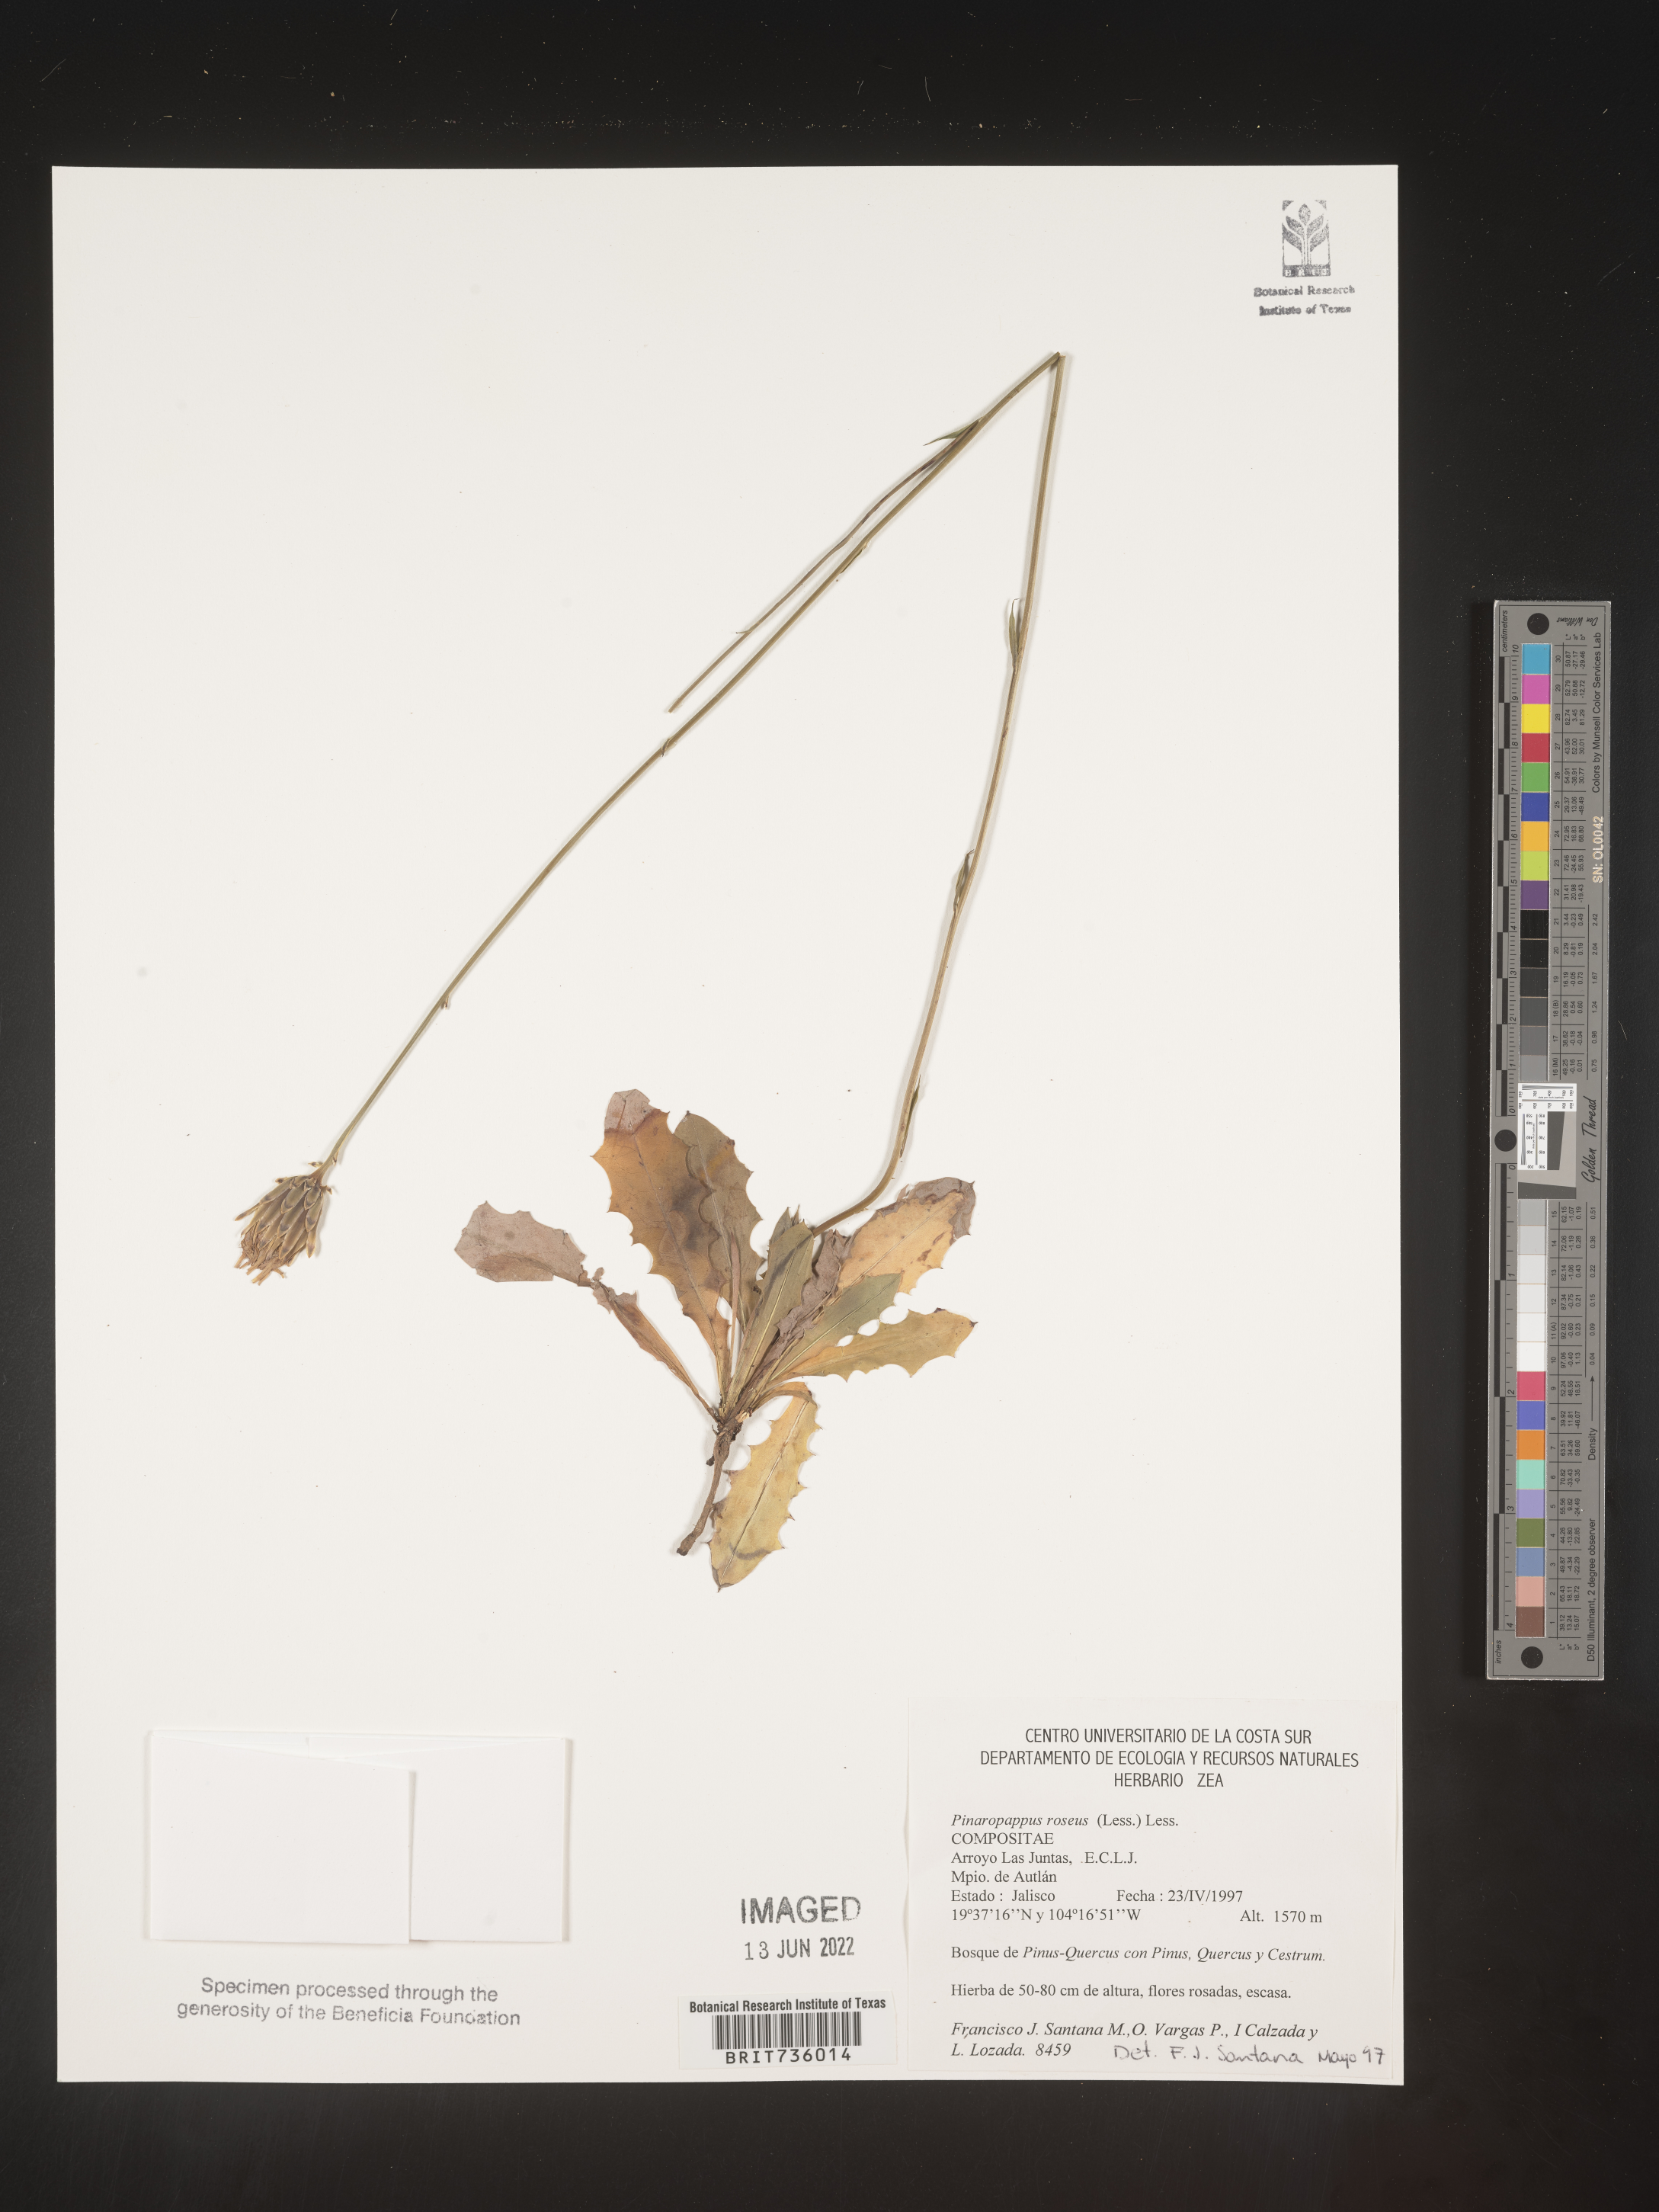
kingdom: Plantae
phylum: Tracheophyta
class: Magnoliopsida
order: Asterales
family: Asteraceae
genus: Pinaropappus
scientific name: Pinaropappus
